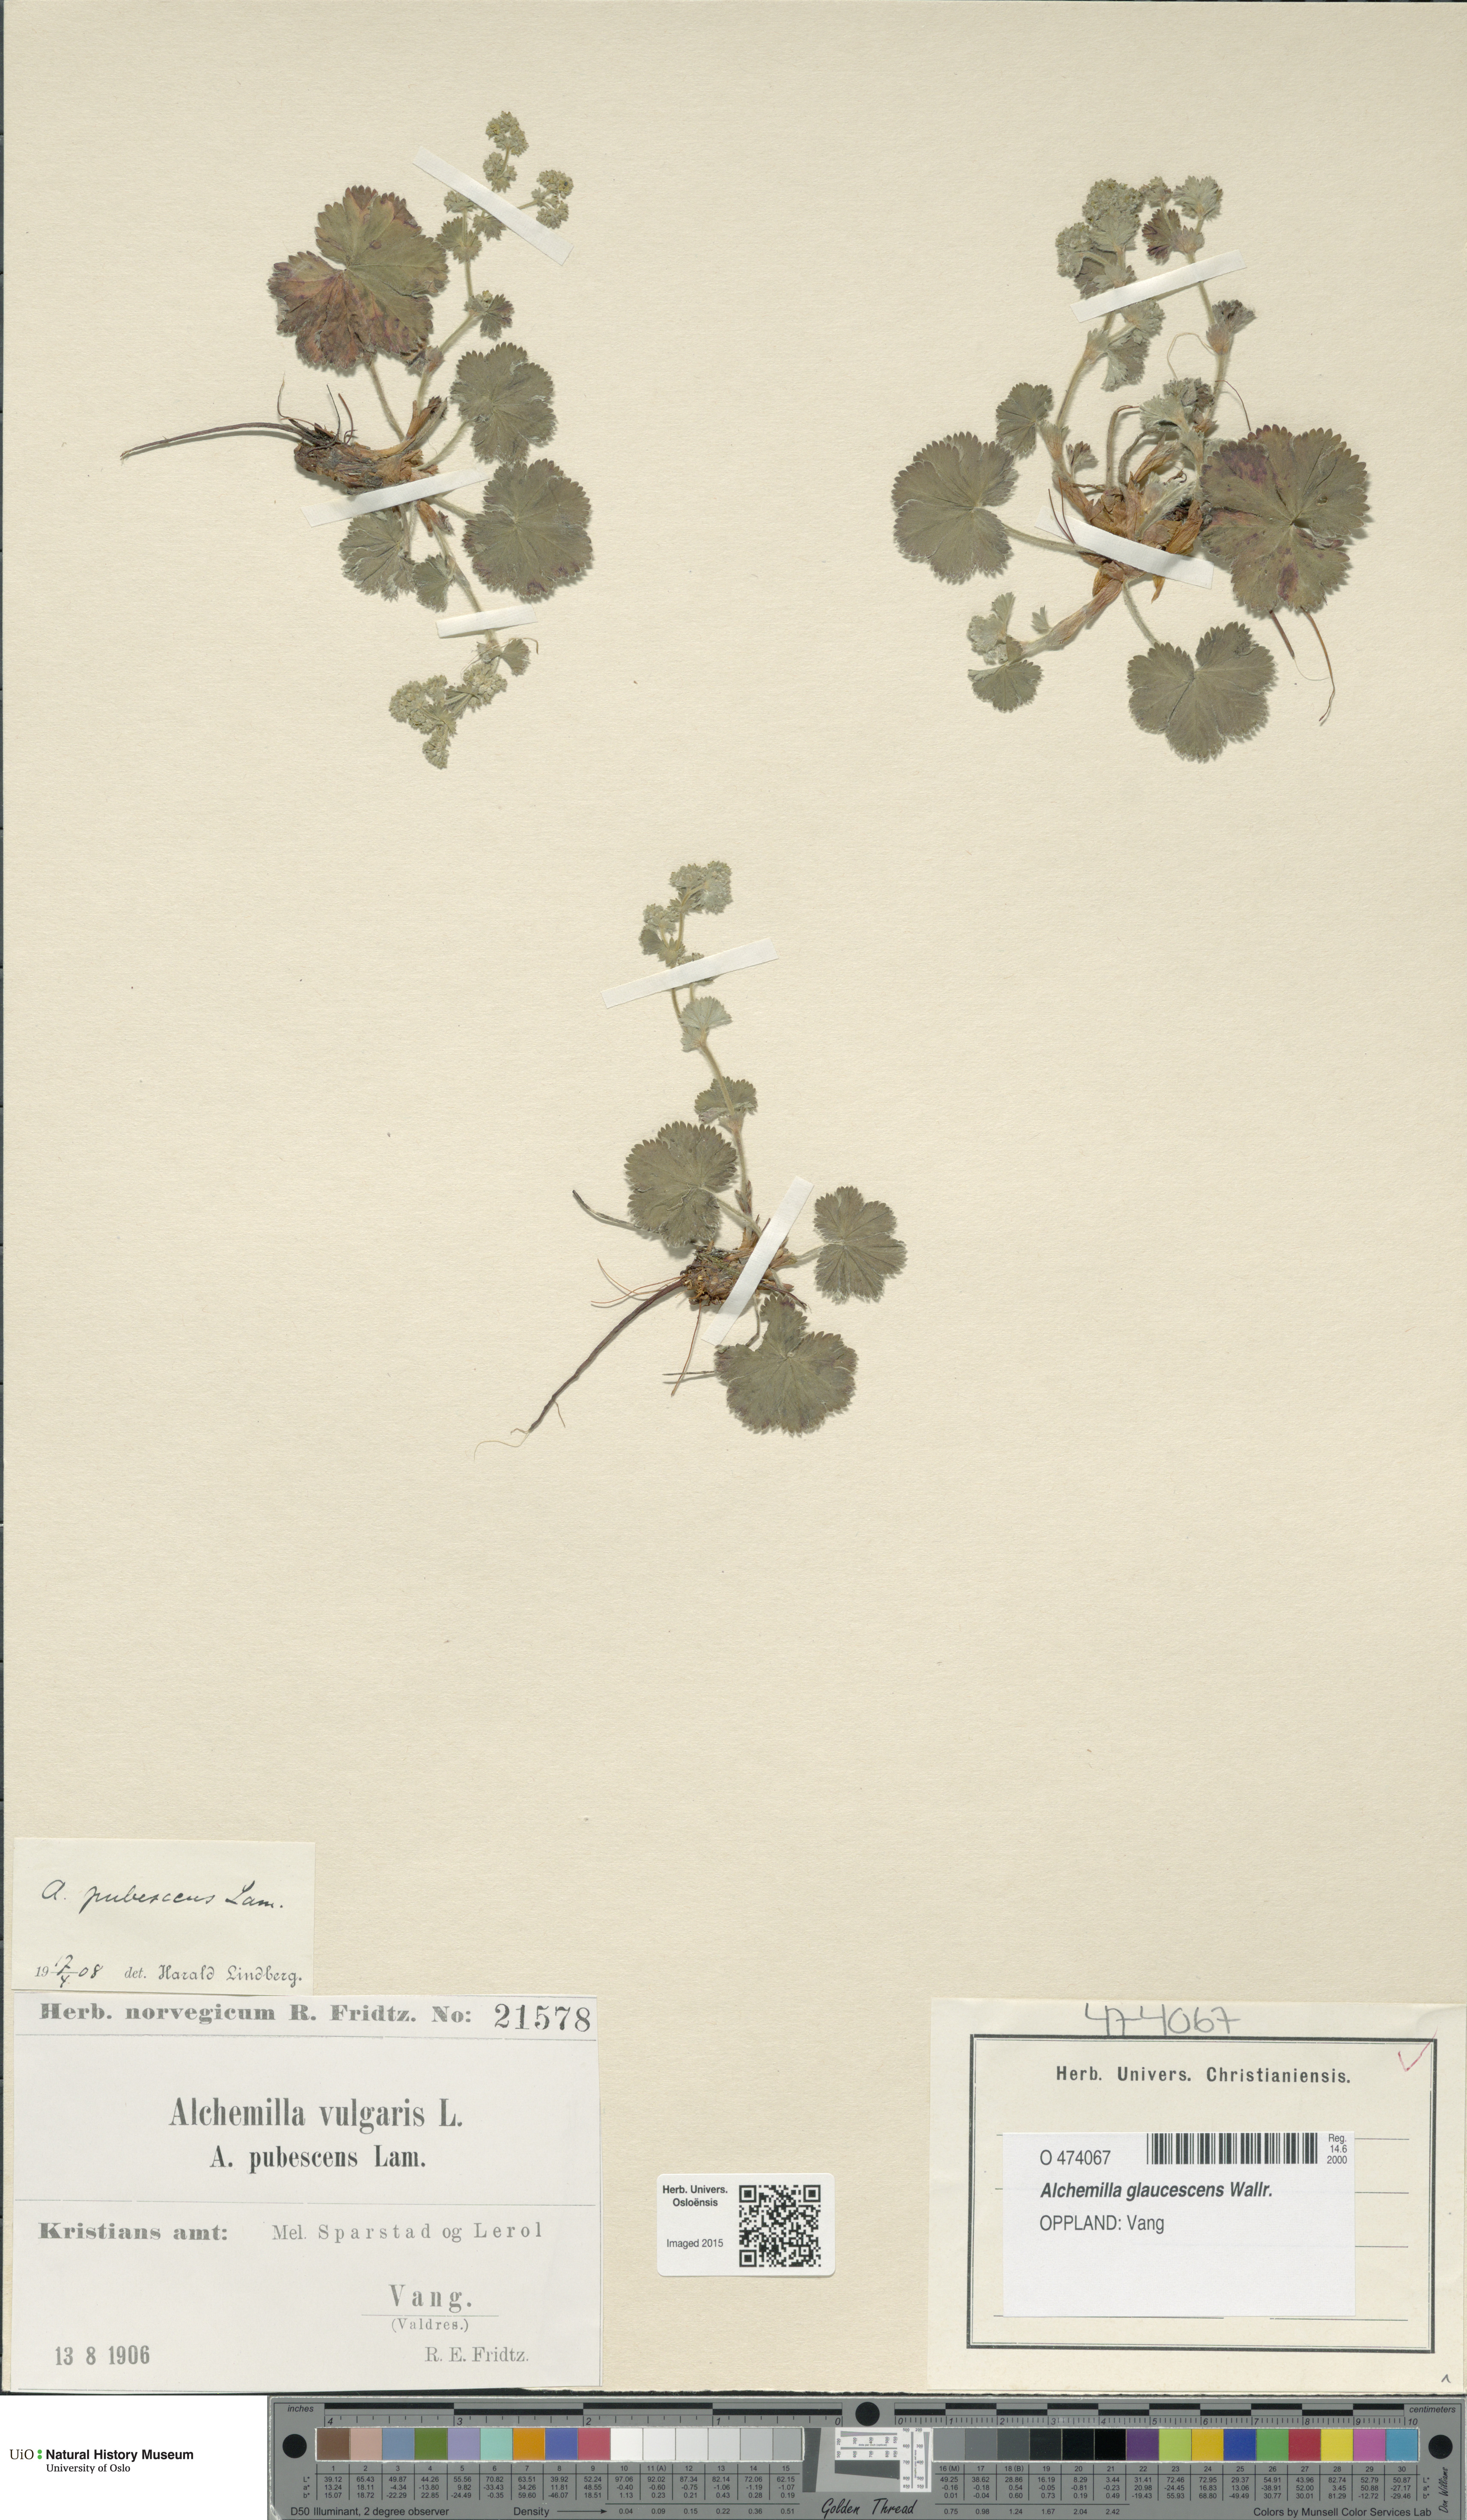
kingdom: Plantae
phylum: Tracheophyta
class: Magnoliopsida
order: Rosales
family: Rosaceae
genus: Alchemilla
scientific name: Alchemilla glaucescens
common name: Silky lady's mantle
